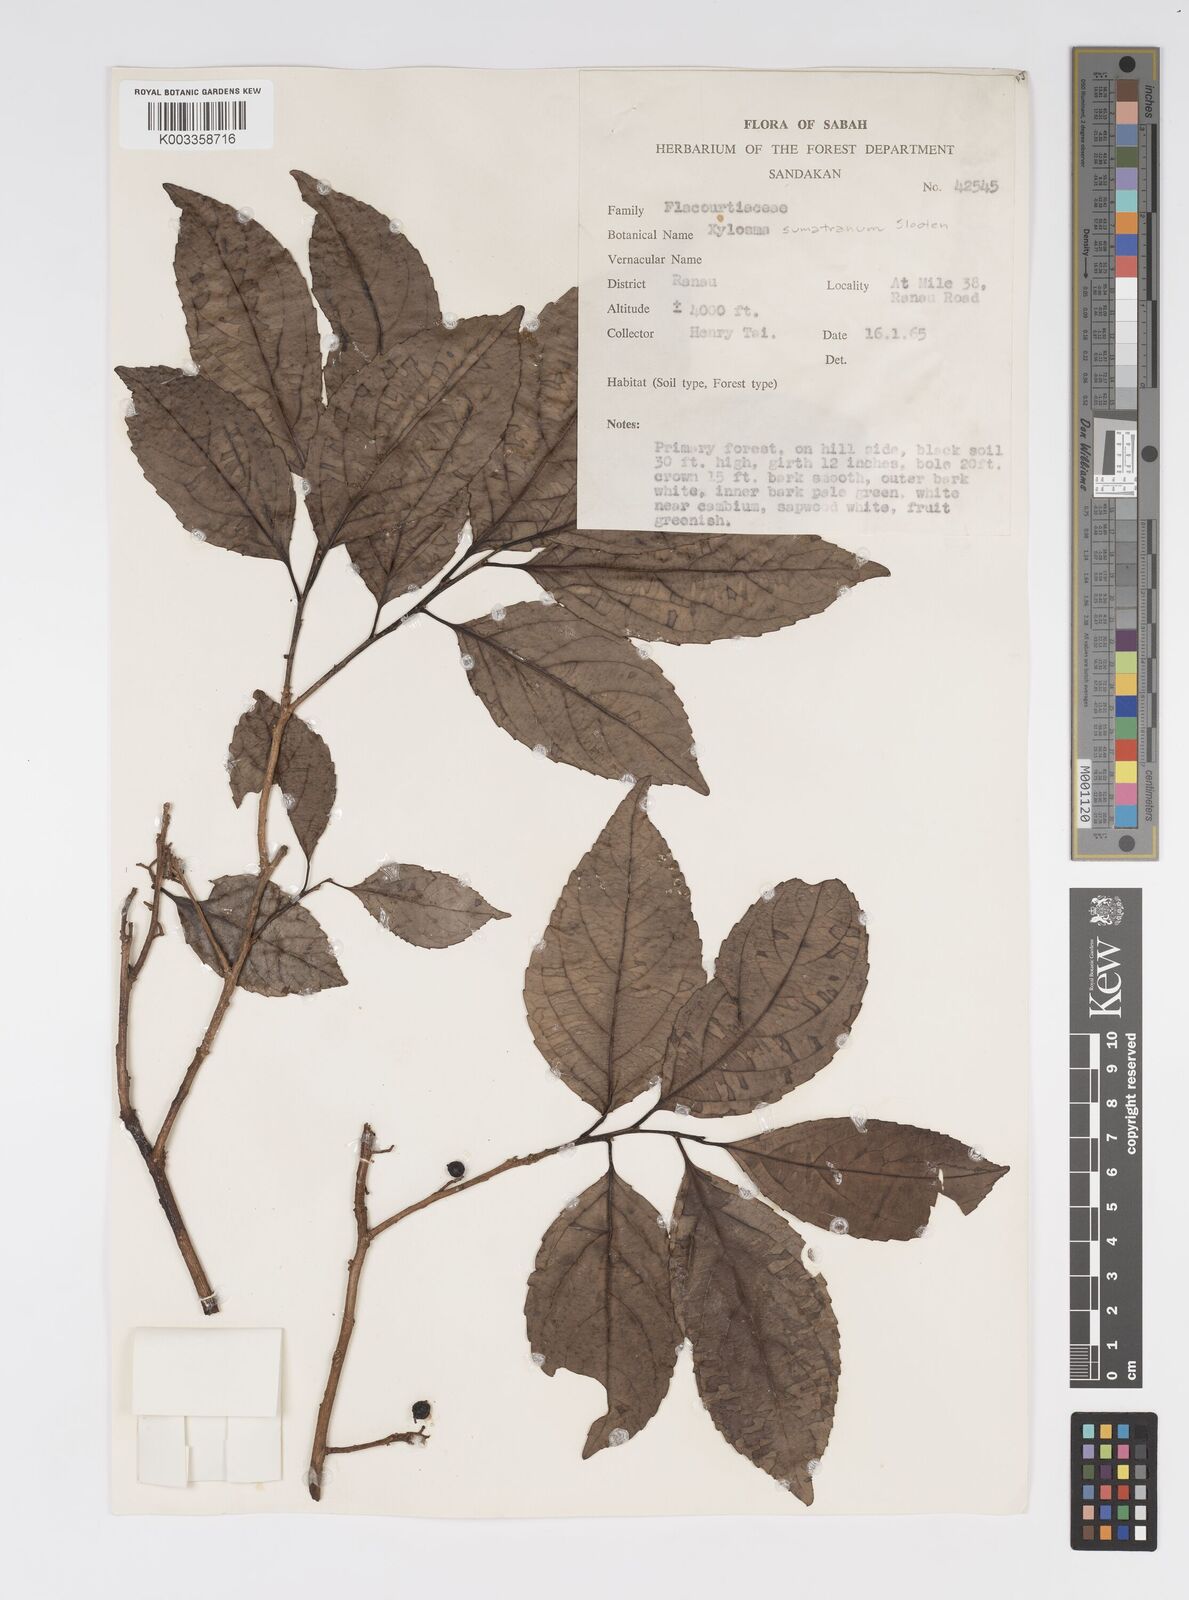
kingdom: Plantae
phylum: Tracheophyta
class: Magnoliopsida
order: Malpighiales
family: Salicaceae
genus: Xylosma
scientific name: Xylosma sumatrana
